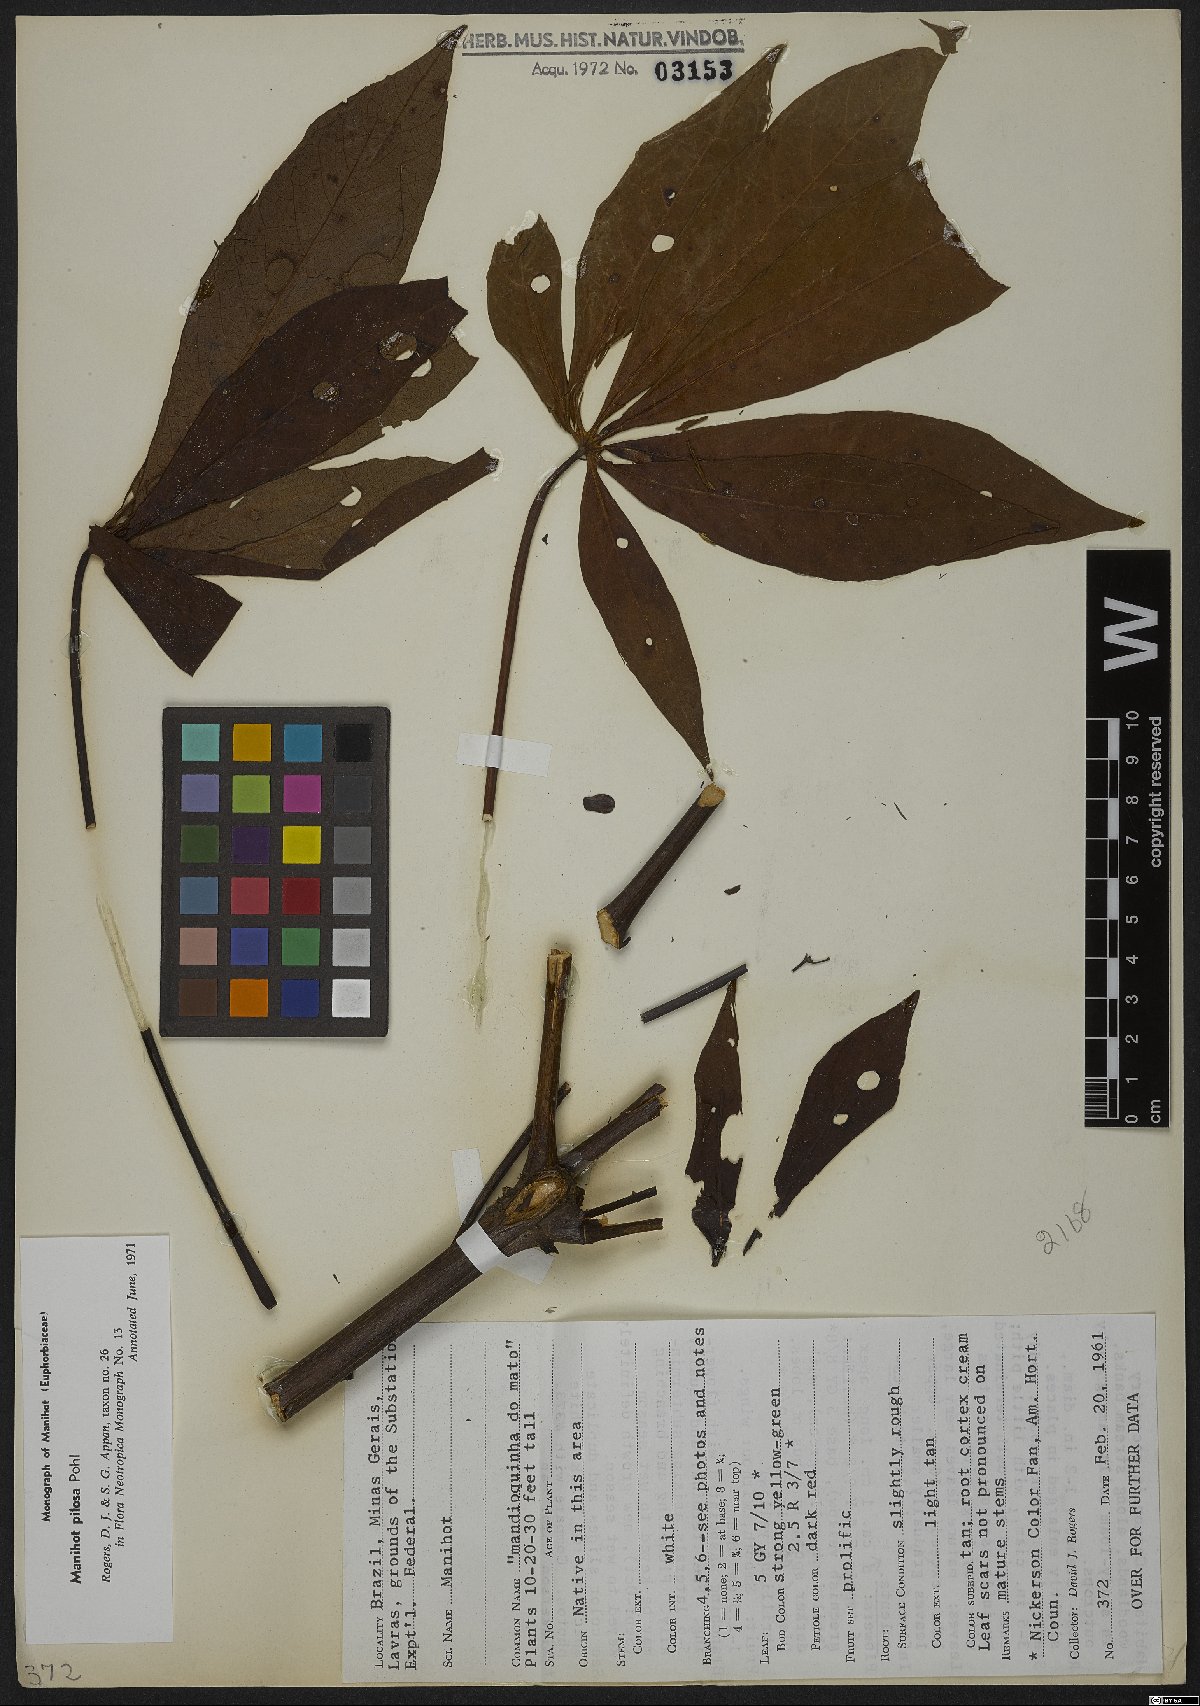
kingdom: Plantae
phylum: Tracheophyta
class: Magnoliopsida
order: Malpighiales
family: Euphorbiaceae
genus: Manihot
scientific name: Manihot pilosa
